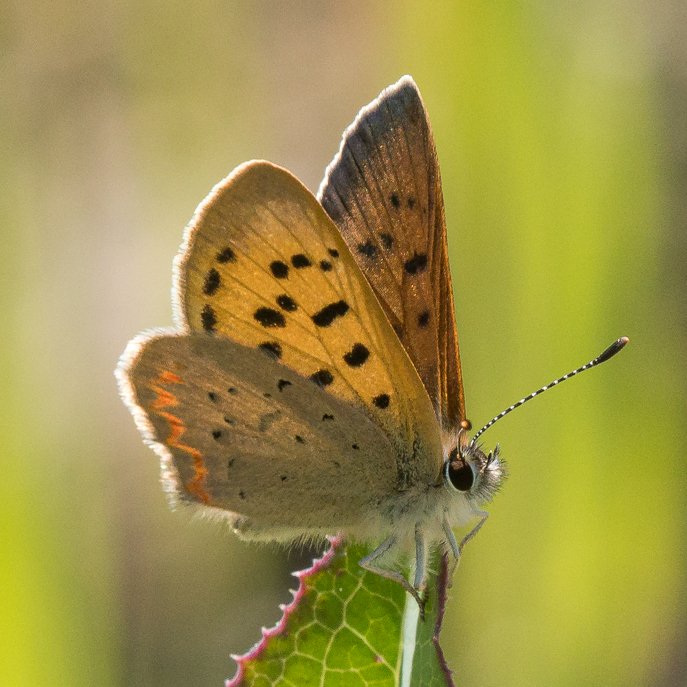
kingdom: Animalia
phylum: Arthropoda
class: Insecta
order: Lepidoptera
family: Sesiidae
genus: Sesia
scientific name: Sesia Lycaena helloides
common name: Purplish Copper
